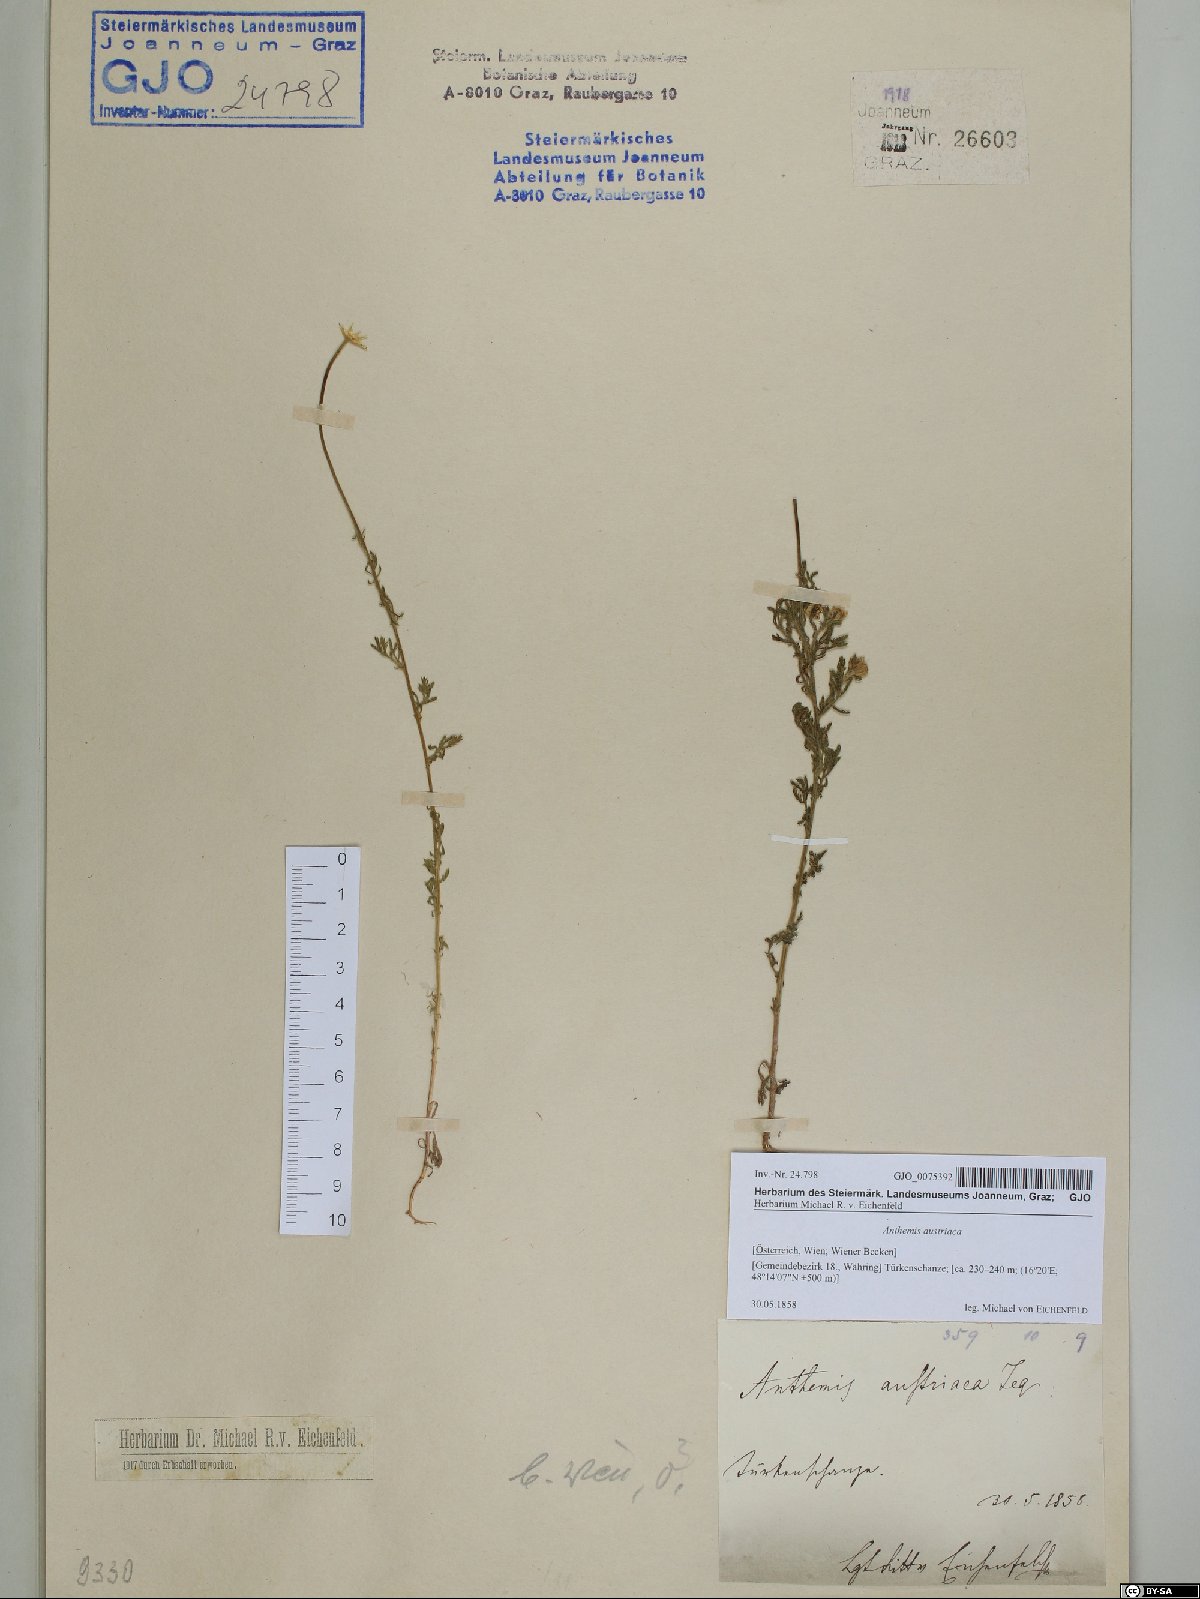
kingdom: Plantae
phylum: Tracheophyta
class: Magnoliopsida
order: Asterales
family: Asteraceae
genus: Cota
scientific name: Cota austriaca
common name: Austrian chamomile
